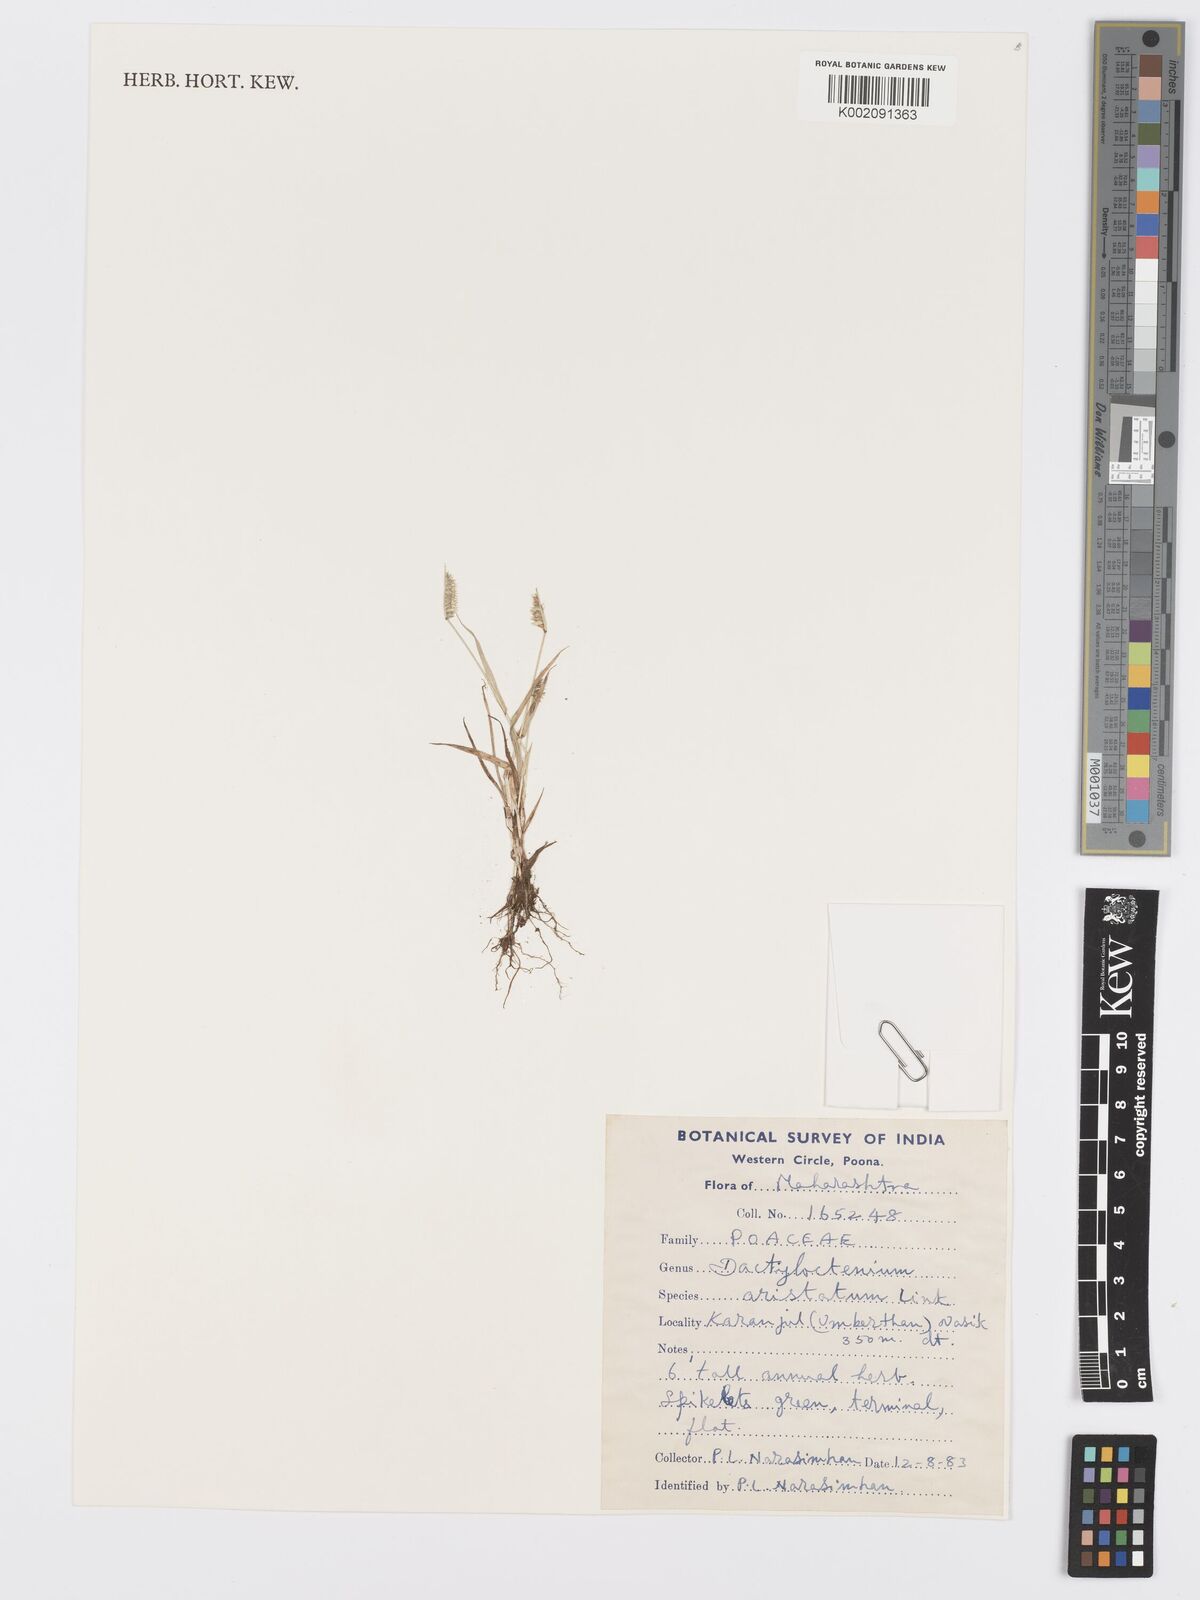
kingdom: Plantae
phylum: Tracheophyta
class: Liliopsida
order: Poales
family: Poaceae
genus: Dactyloctenium
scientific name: Dactyloctenium aristatum
